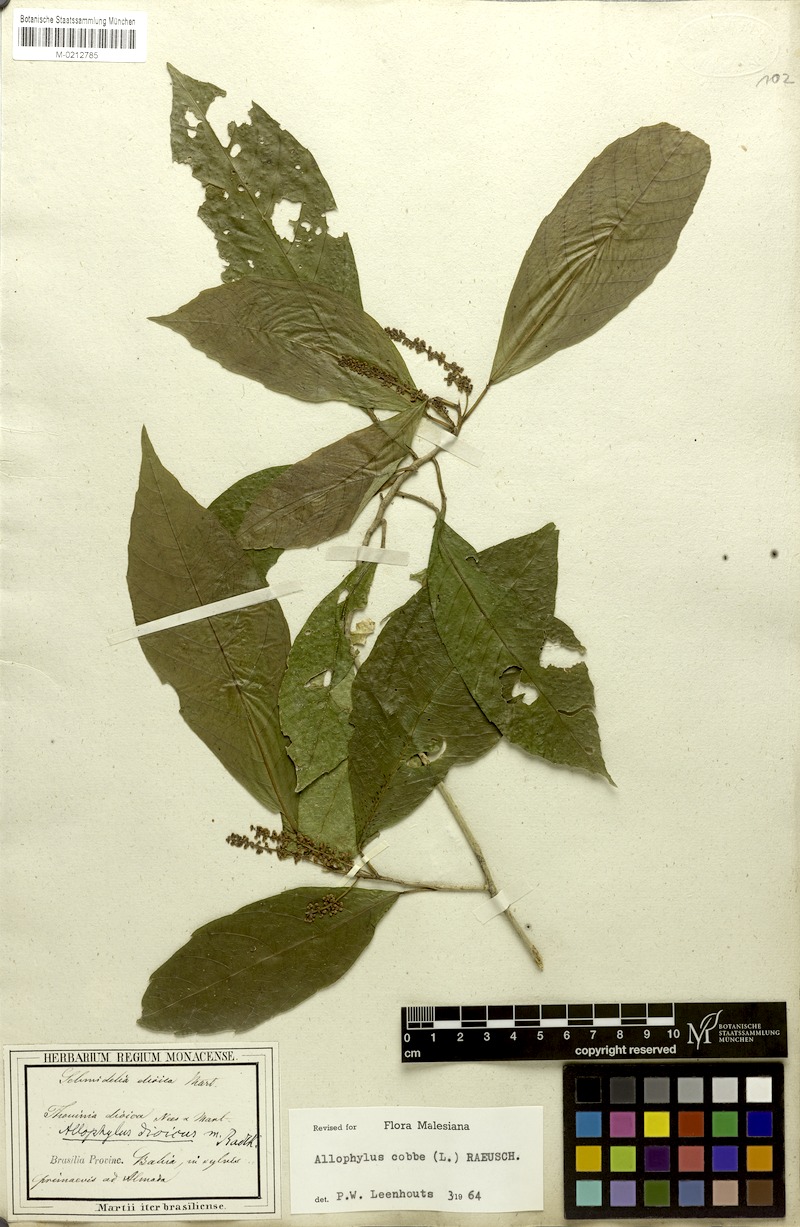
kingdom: Plantae
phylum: Tracheophyta
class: Magnoliopsida
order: Sapindales
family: Sapindaceae
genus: Allophylus
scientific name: Allophylus dioicus
